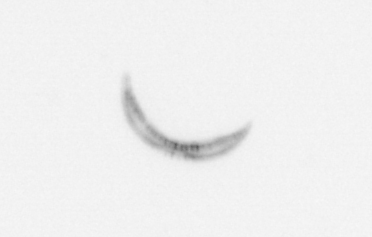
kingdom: Chromista
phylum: Ochrophyta
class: Bacillariophyceae
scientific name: Bacillariophyceae
